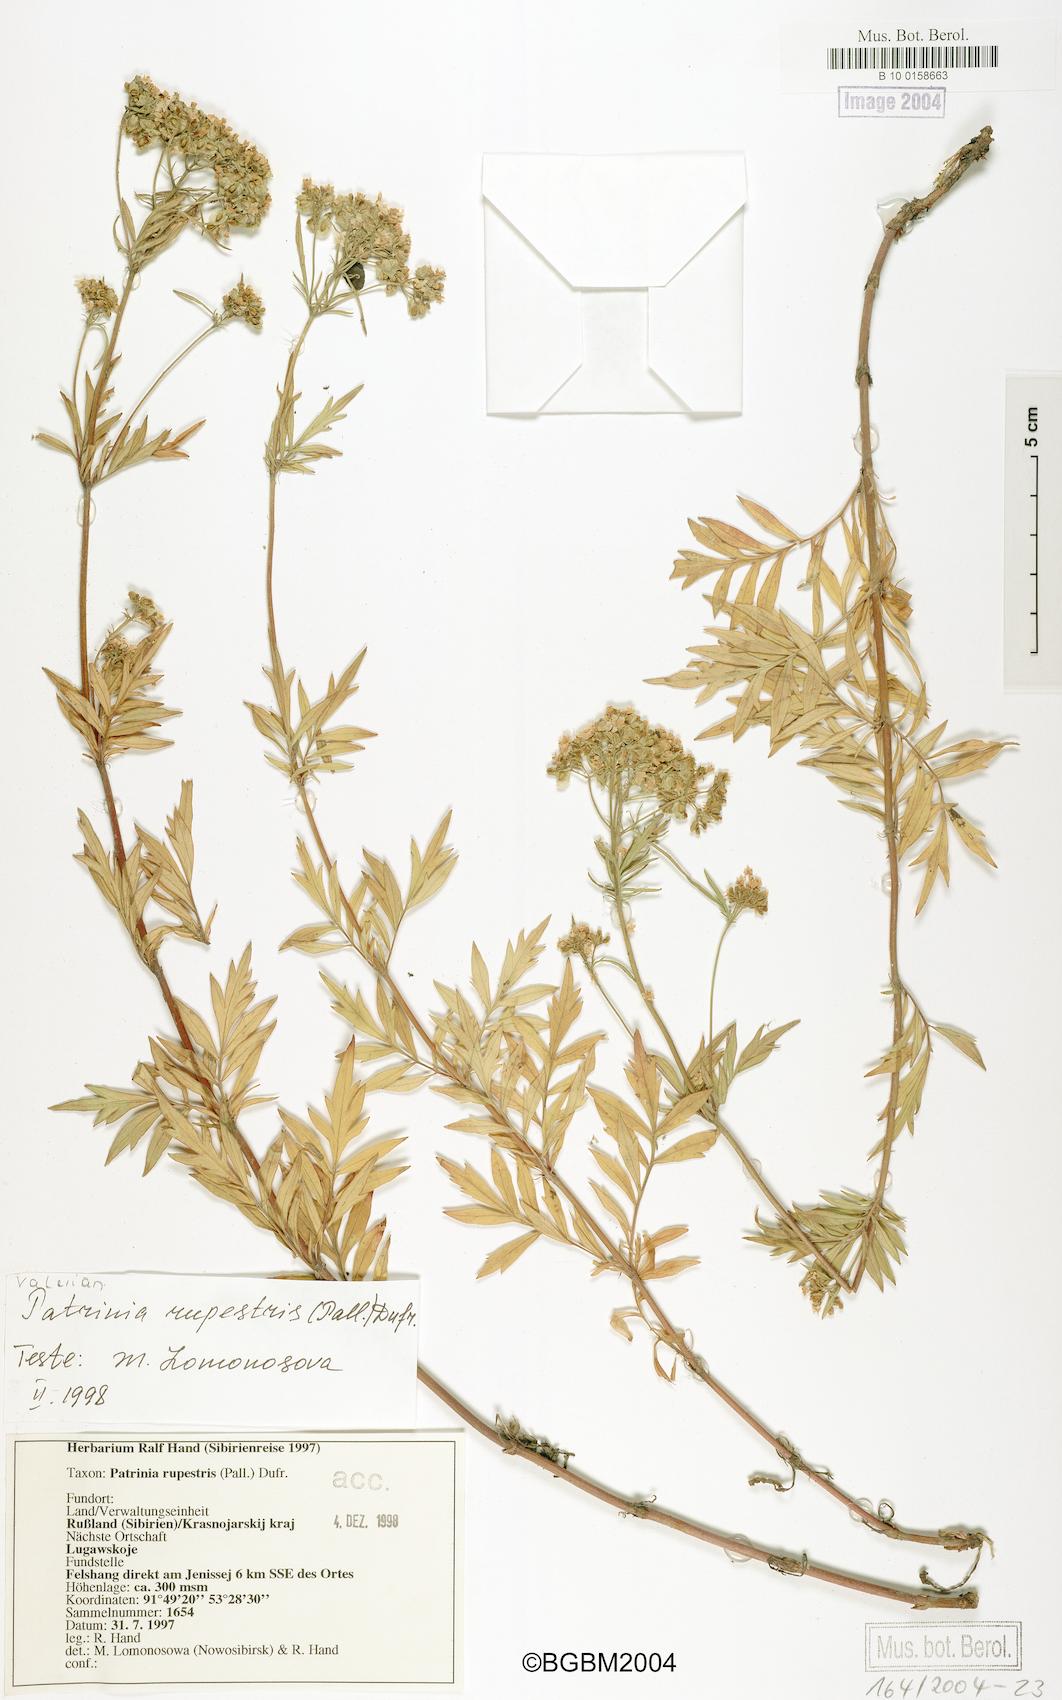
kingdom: Plantae
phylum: Tracheophyta
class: Magnoliopsida
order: Dipsacales
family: Caprifoliaceae
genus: Patrinia
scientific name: Patrinia rupestris
